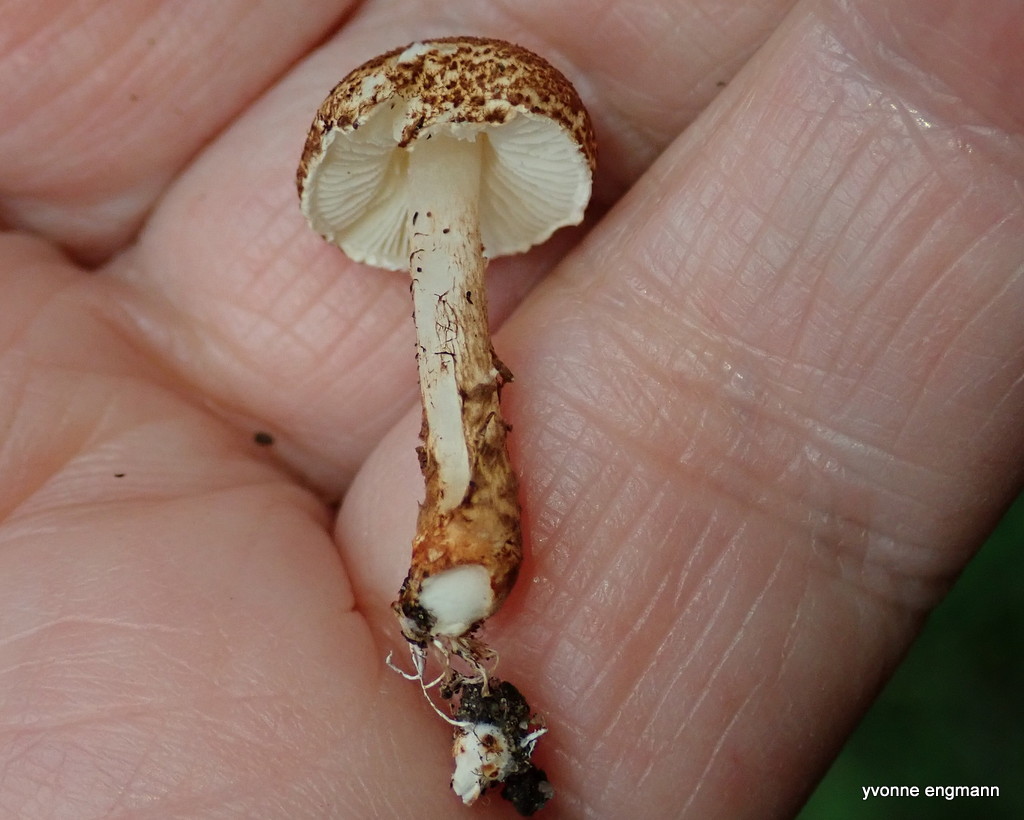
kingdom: Fungi
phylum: Basidiomycota
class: Agaricomycetes
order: Agaricales
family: Agaricaceae
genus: Lepiota
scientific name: Lepiota castanea
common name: kastaniebrun parasolhat
